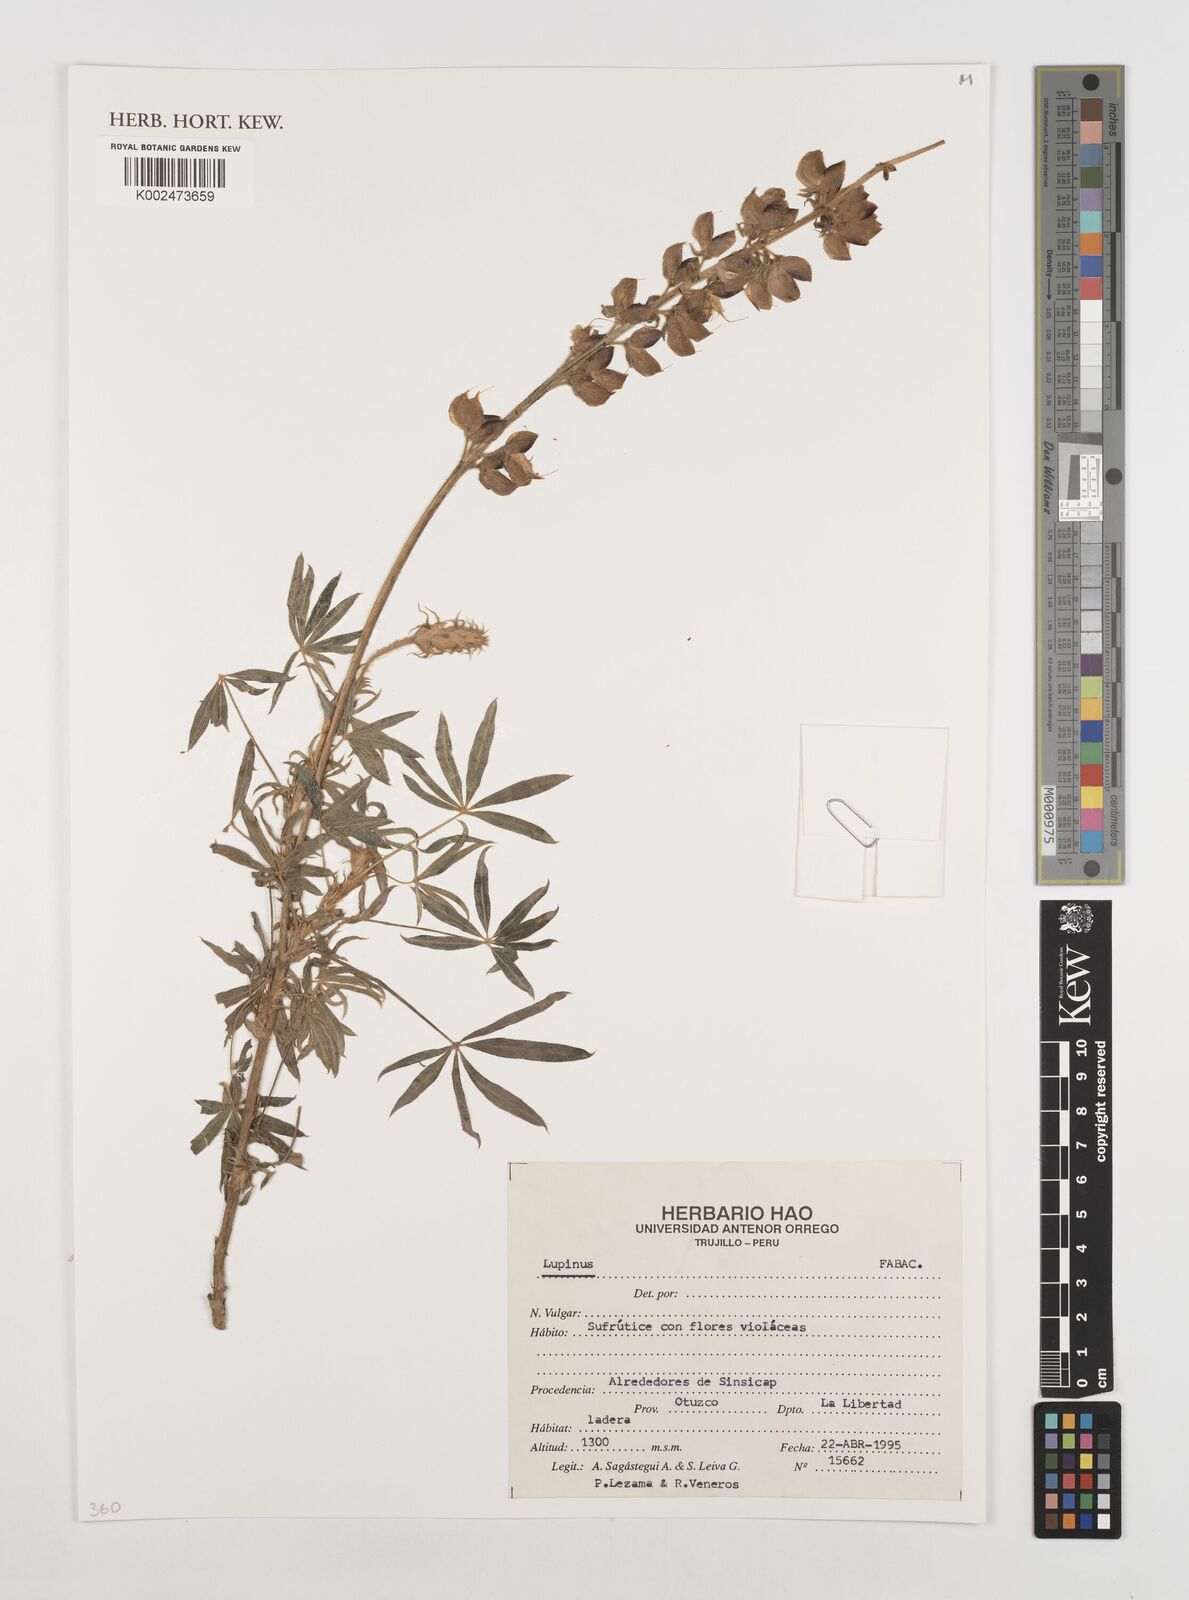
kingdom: Plantae
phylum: Tracheophyta
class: Magnoliopsida
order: Fabales
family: Fabaceae
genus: Lupinus
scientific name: Lupinus
